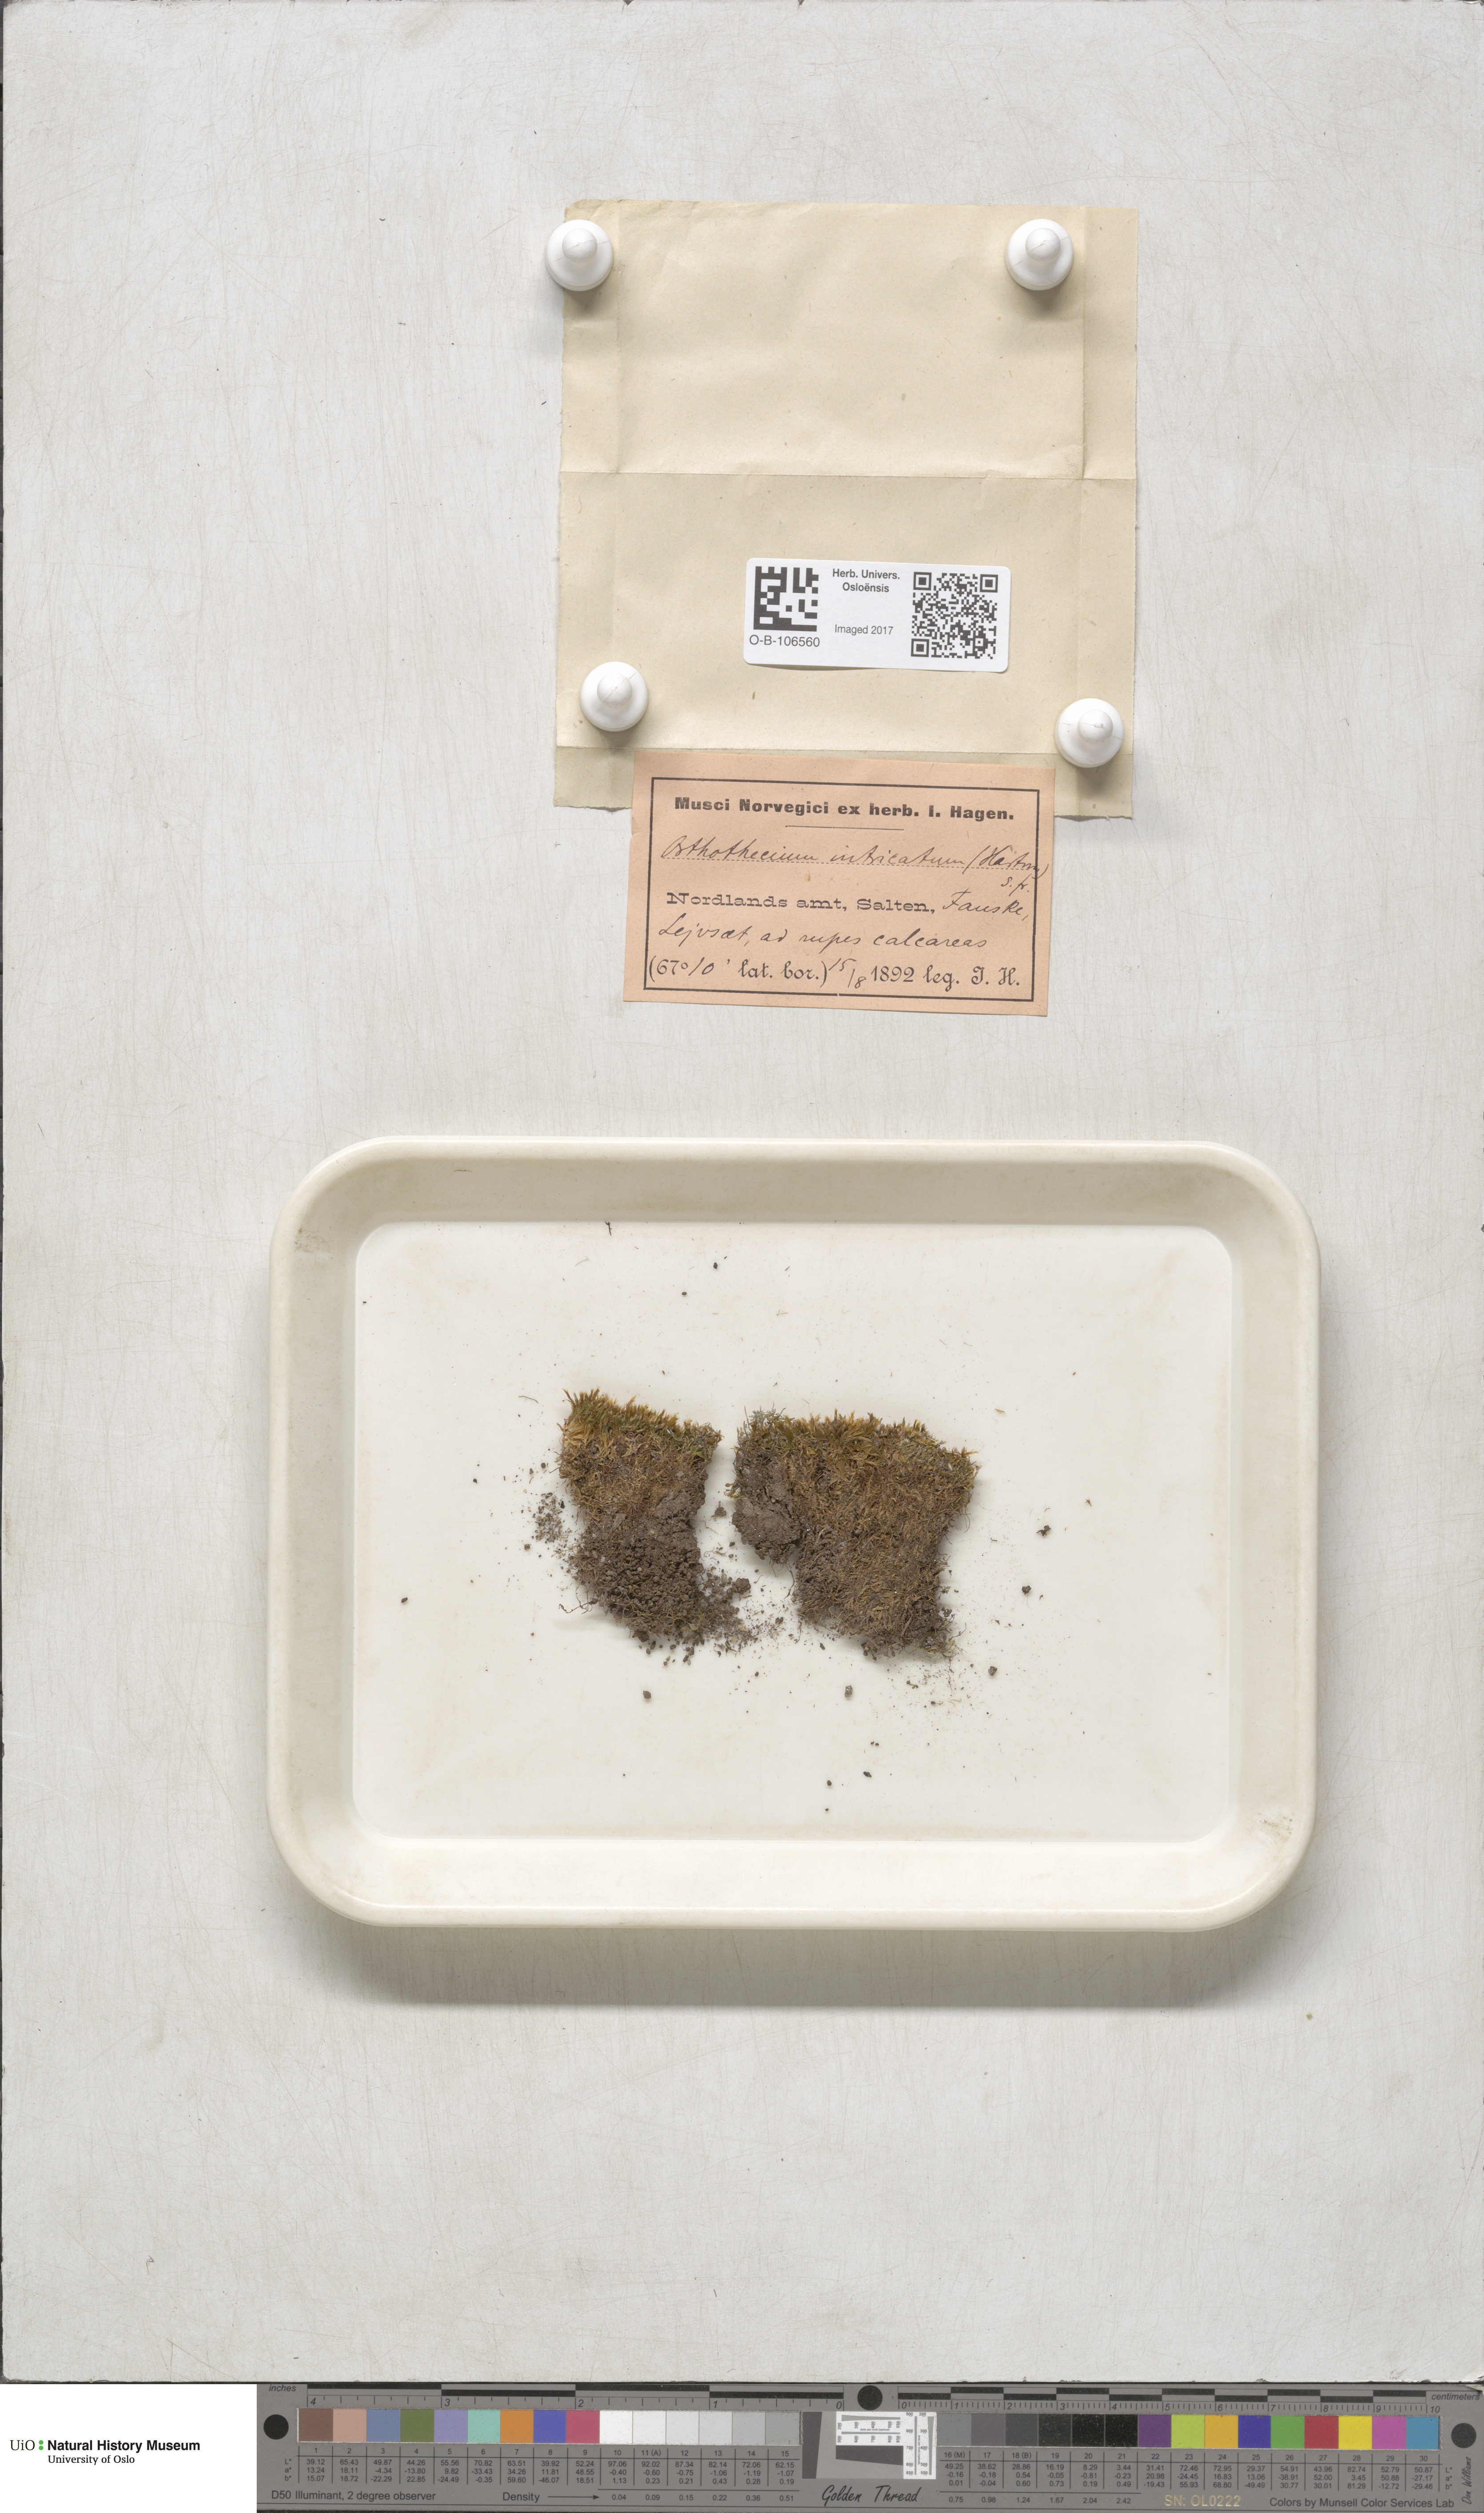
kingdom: Plantae
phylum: Bryophyta
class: Bryopsida
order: Hypnales
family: Plagiotheciaceae
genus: Orthothecium
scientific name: Orthothecium intricatum
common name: Fine-leaved erect-capsule moss
